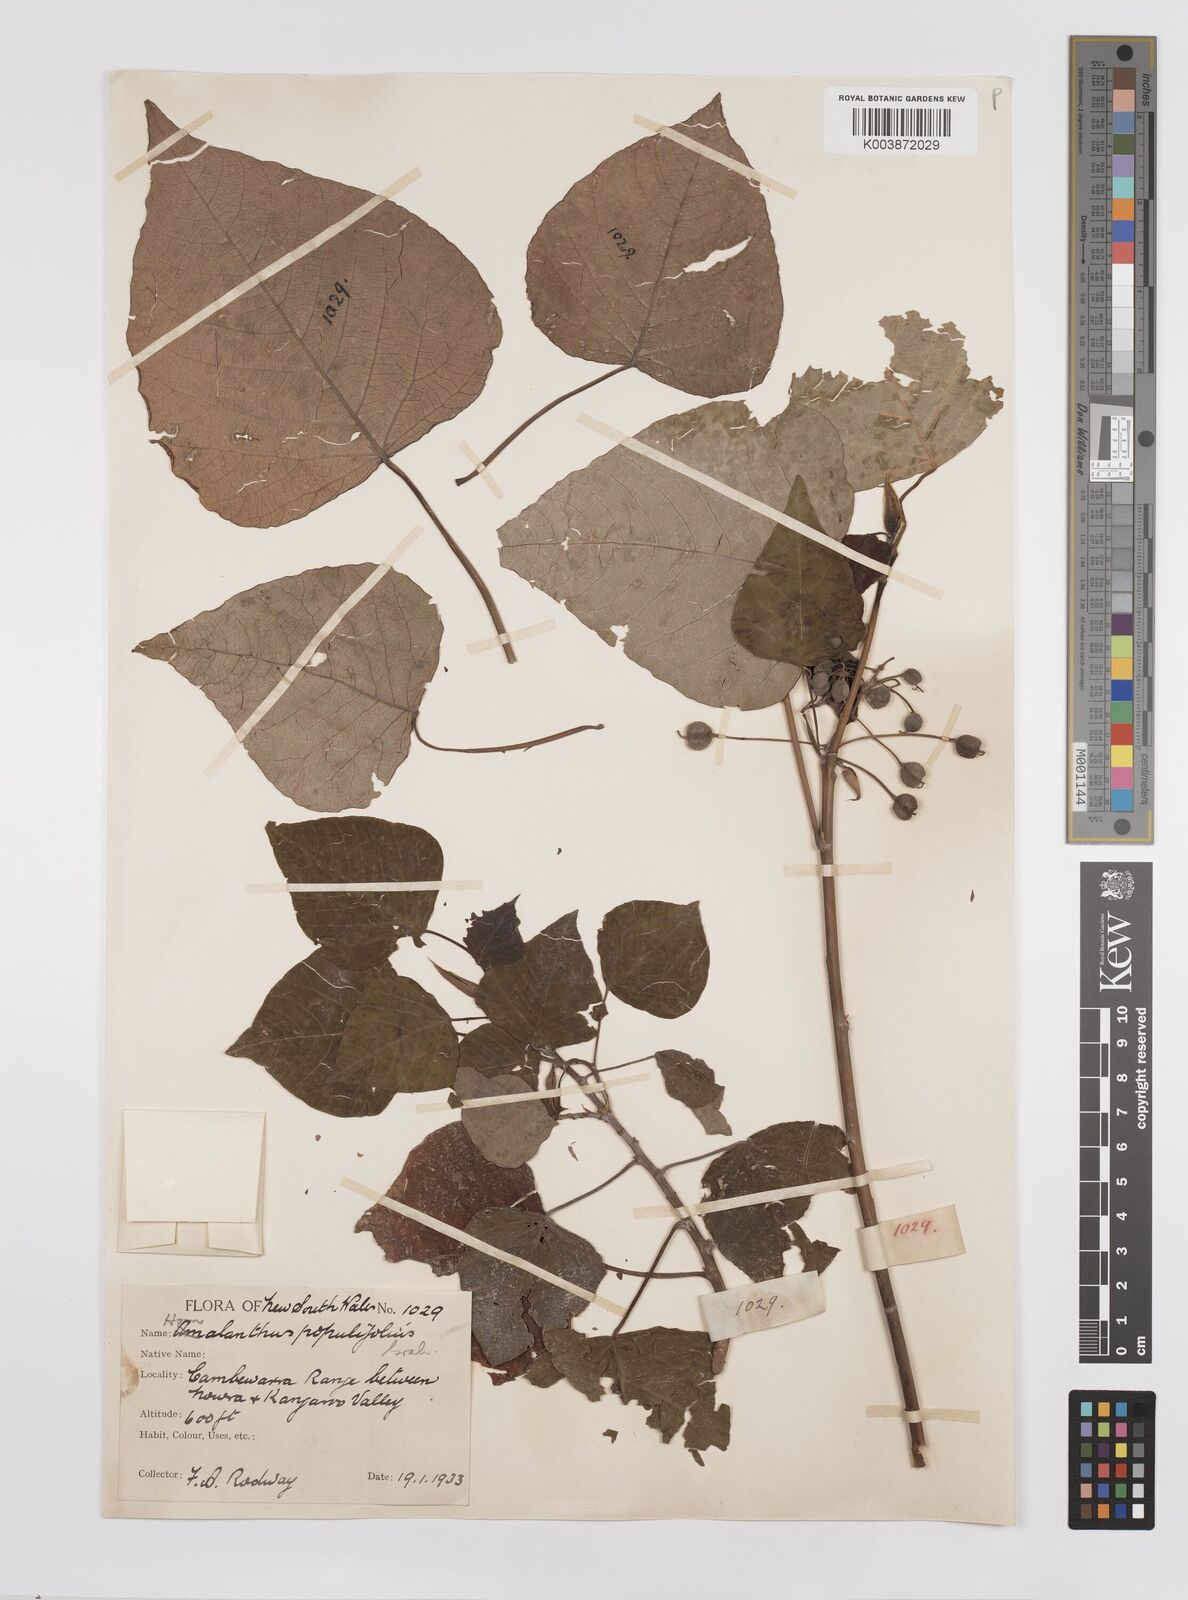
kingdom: Plantae
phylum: Tracheophyta
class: Magnoliopsida
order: Malpighiales
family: Euphorbiaceae
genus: Homalanthus
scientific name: Homalanthus populifolius
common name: Queensland poplar
